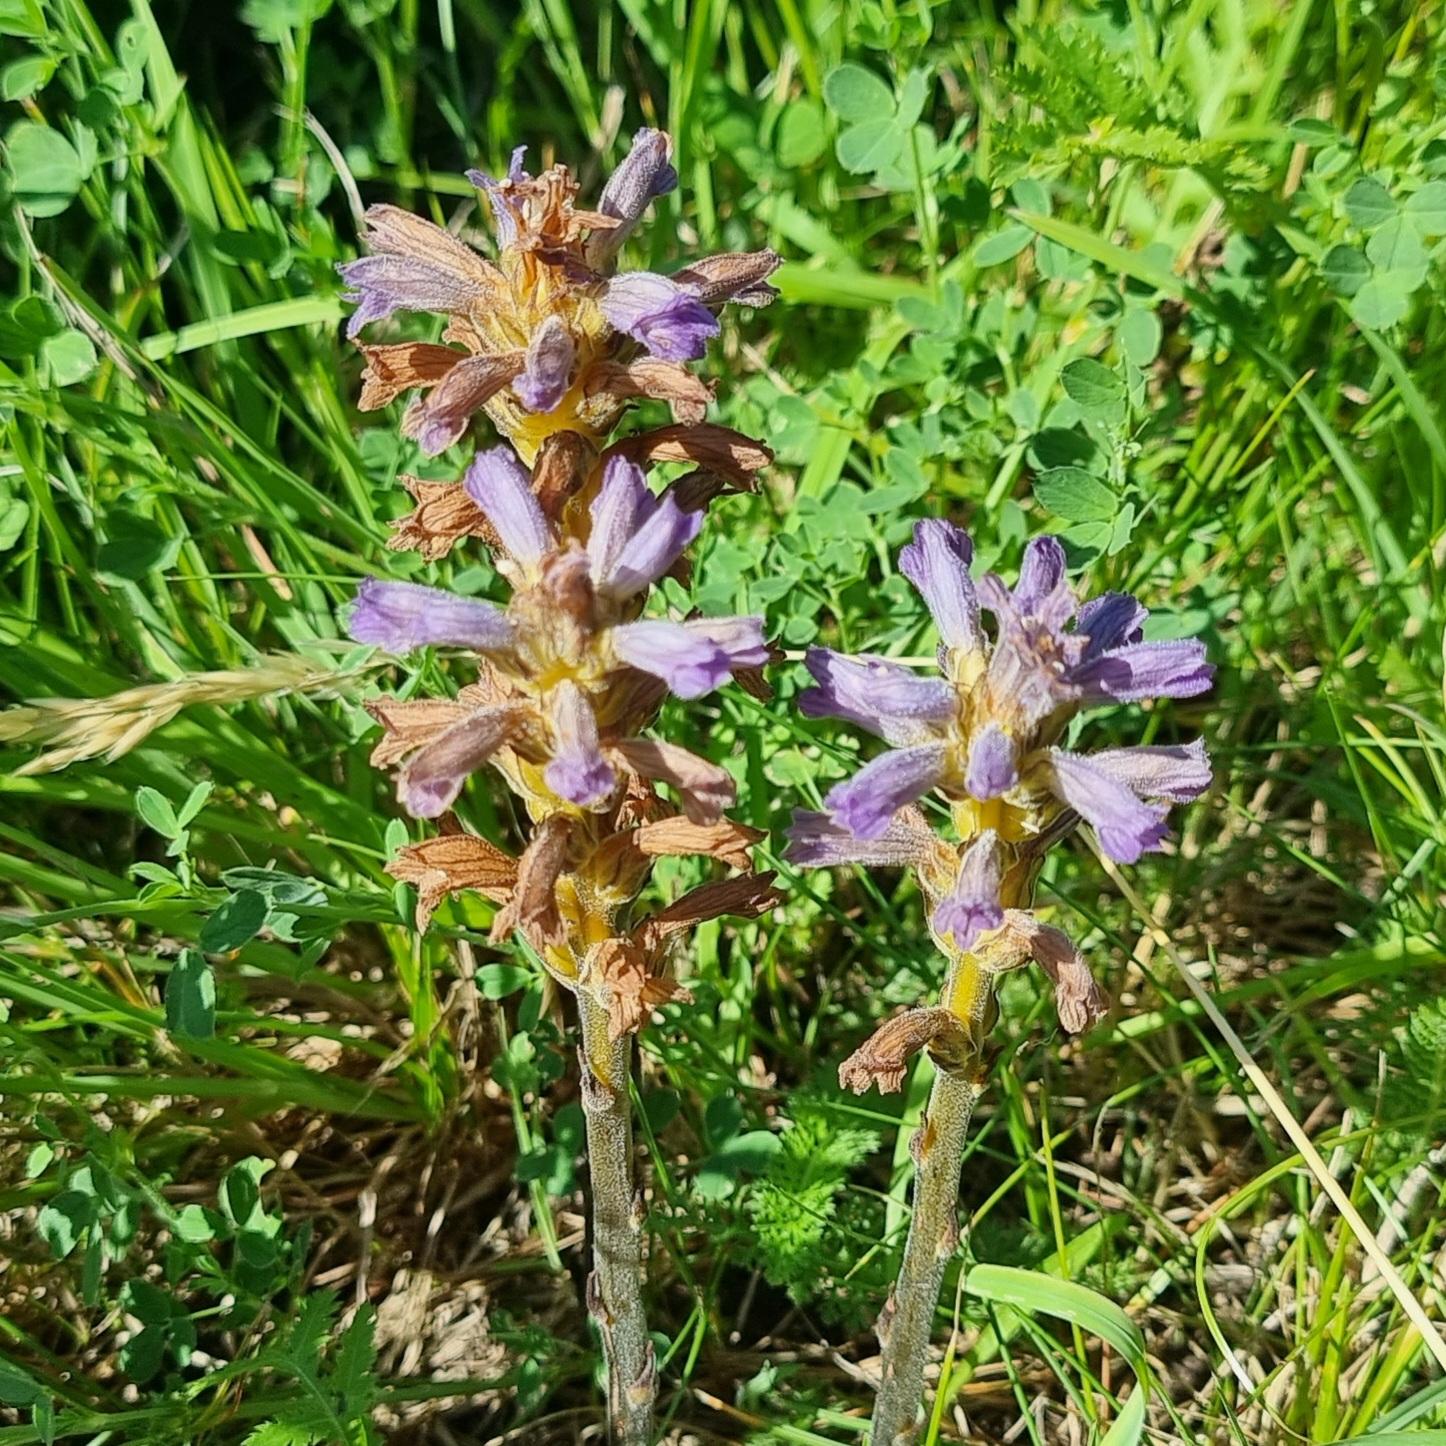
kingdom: Plantae
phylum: Tracheophyta
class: Magnoliopsida
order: Lamiales
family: Orobanchaceae
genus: Phelipanche
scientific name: Phelipanche purpurea
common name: Røllike-gyvelkvæler
